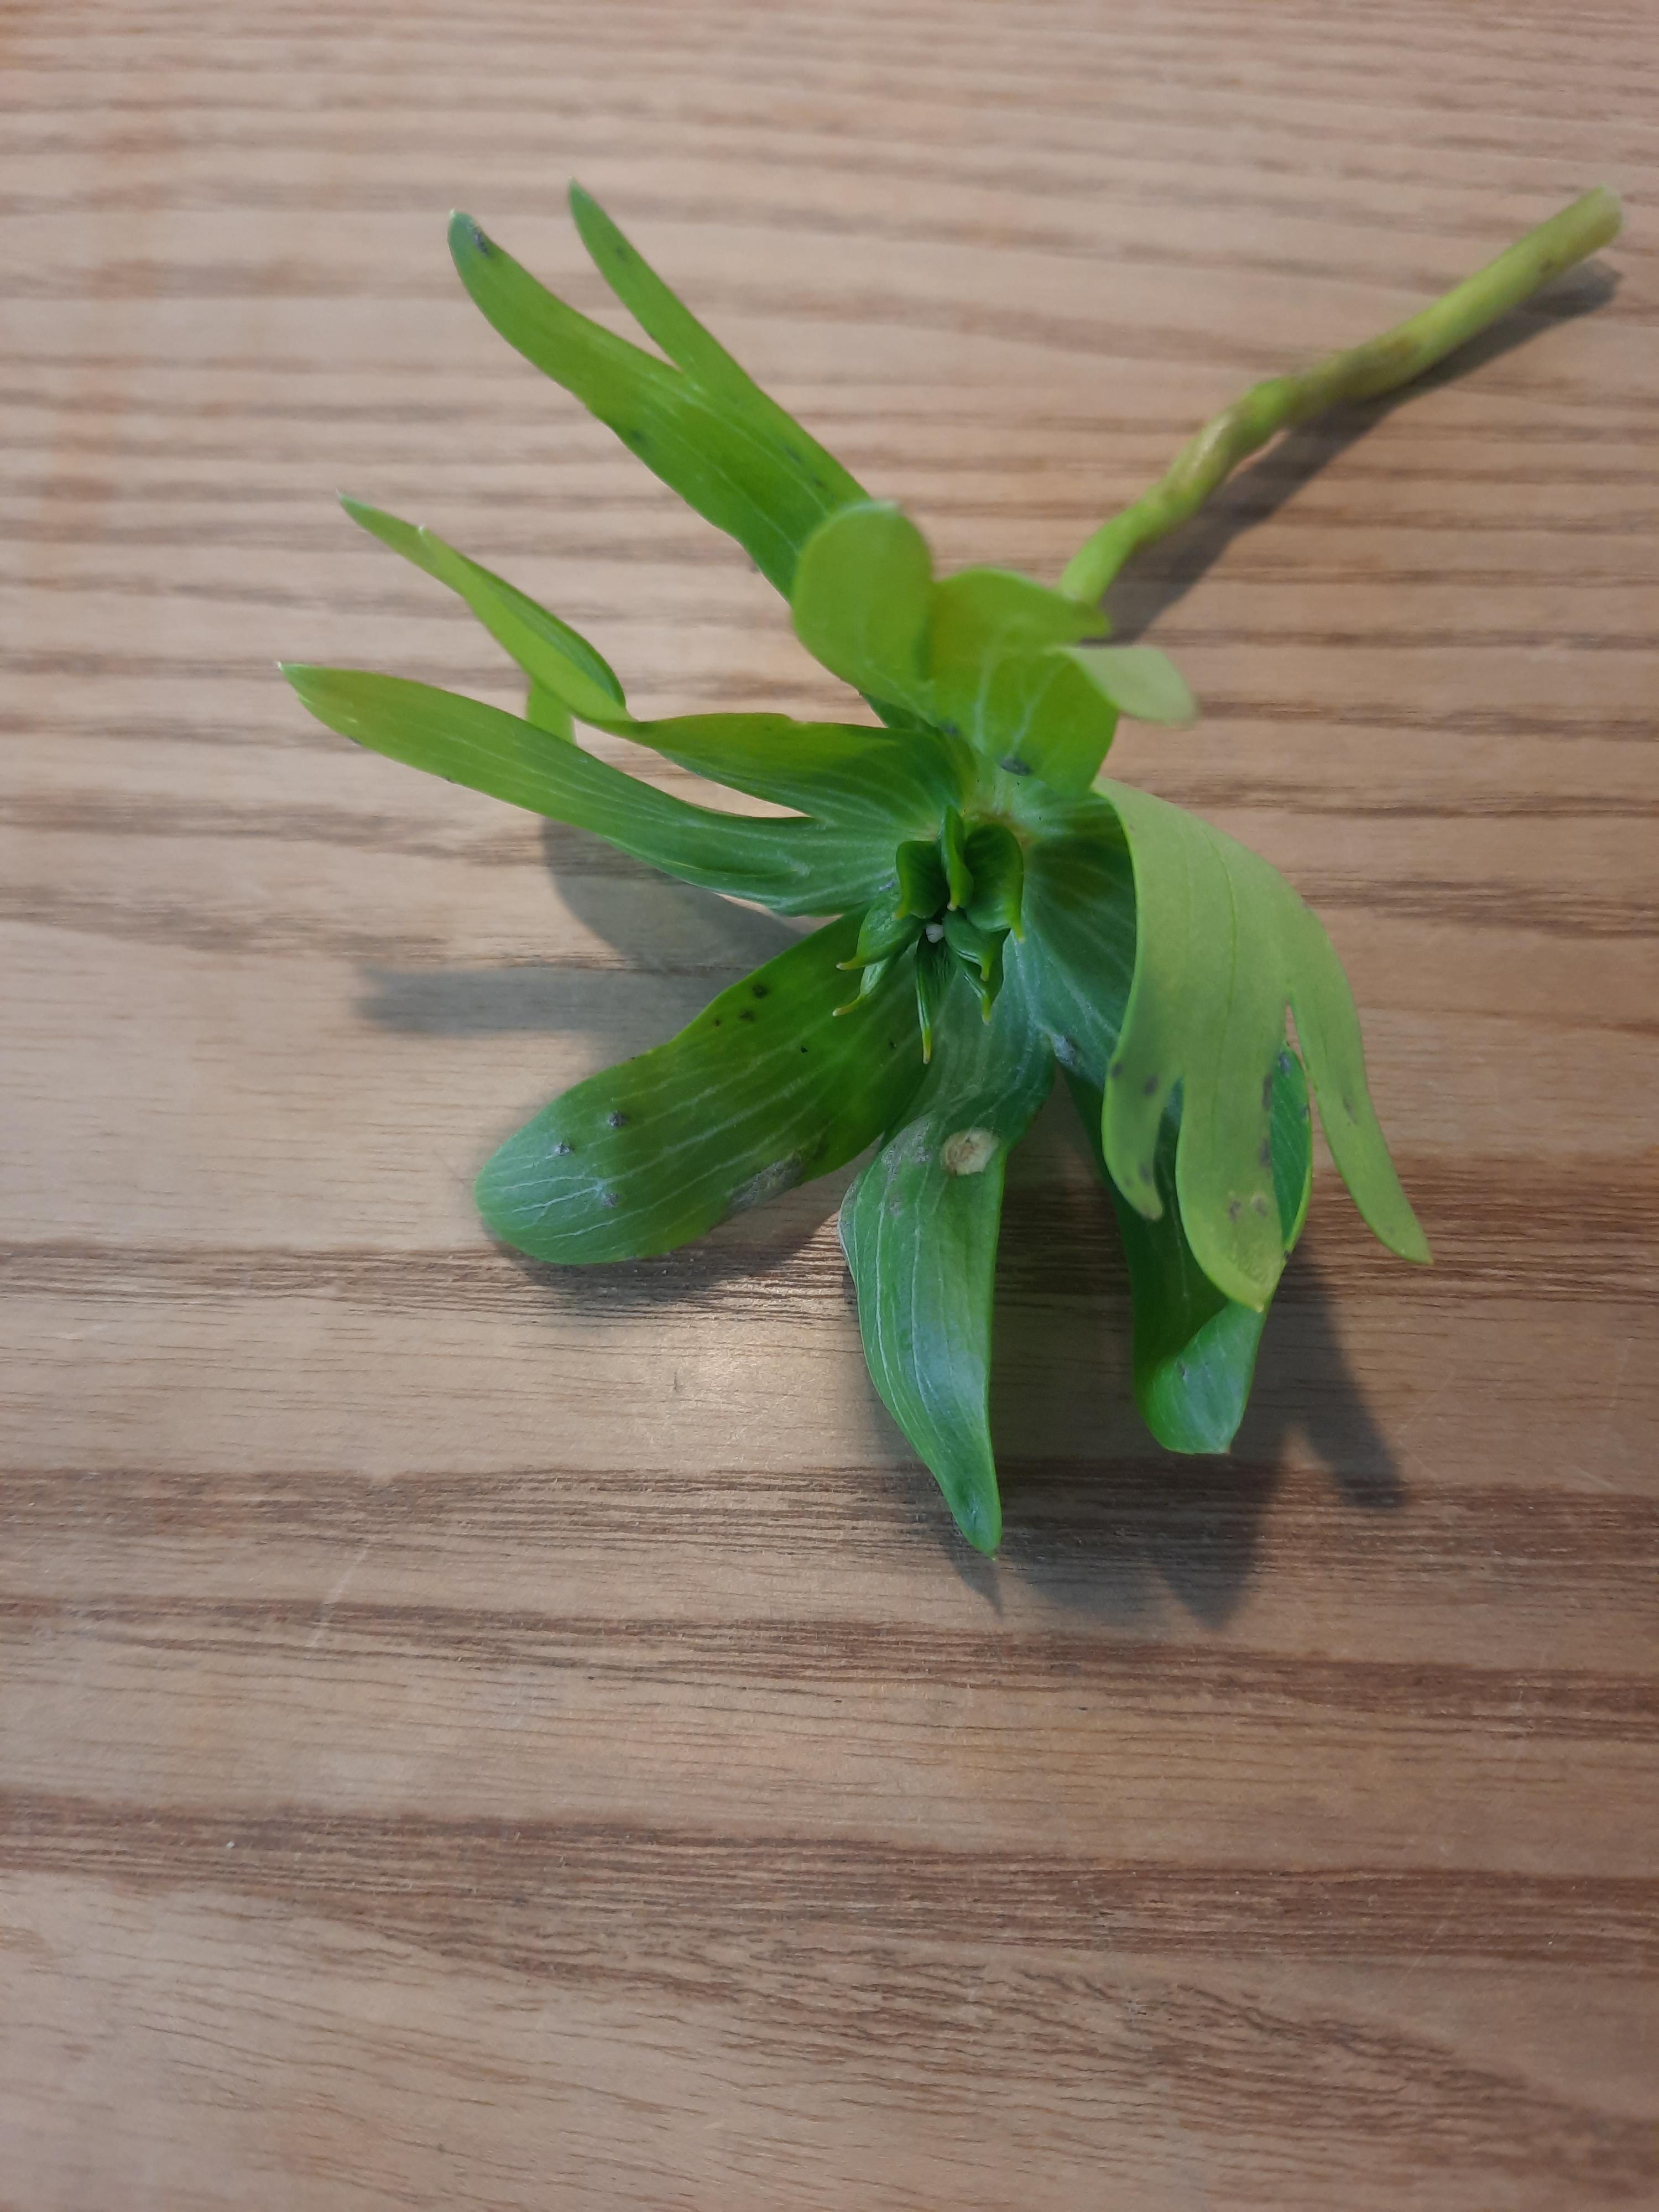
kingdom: Fungi
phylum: Basidiomycota
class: Ustilaginomycetes
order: Urocystidales
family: Urocystidaceae
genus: Urocystis
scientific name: Urocystis eranthidis
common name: erantis-brand
